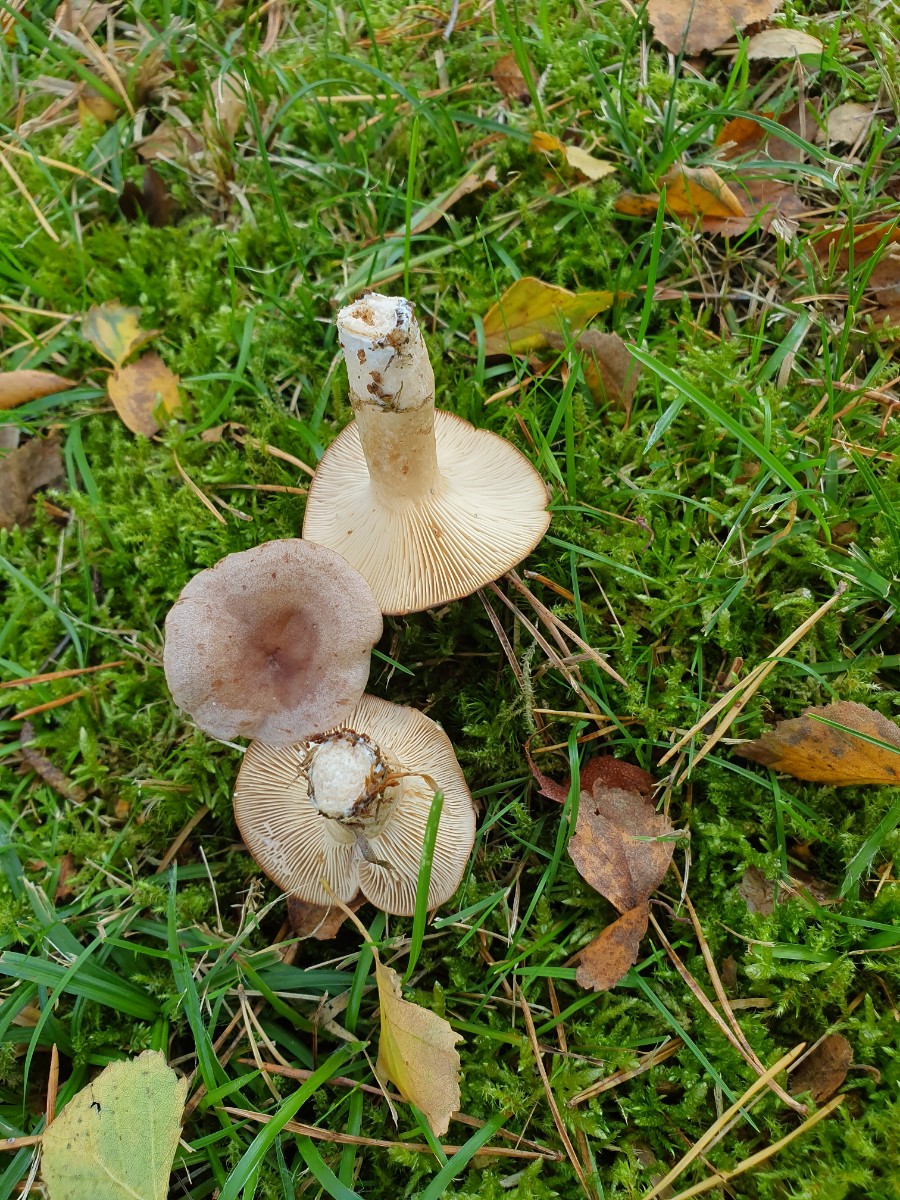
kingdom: Fungi
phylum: Basidiomycota
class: Agaricomycetes
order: Russulales
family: Russulaceae
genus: Lactarius
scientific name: Lactarius vietus
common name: violetgrå mælkehat
